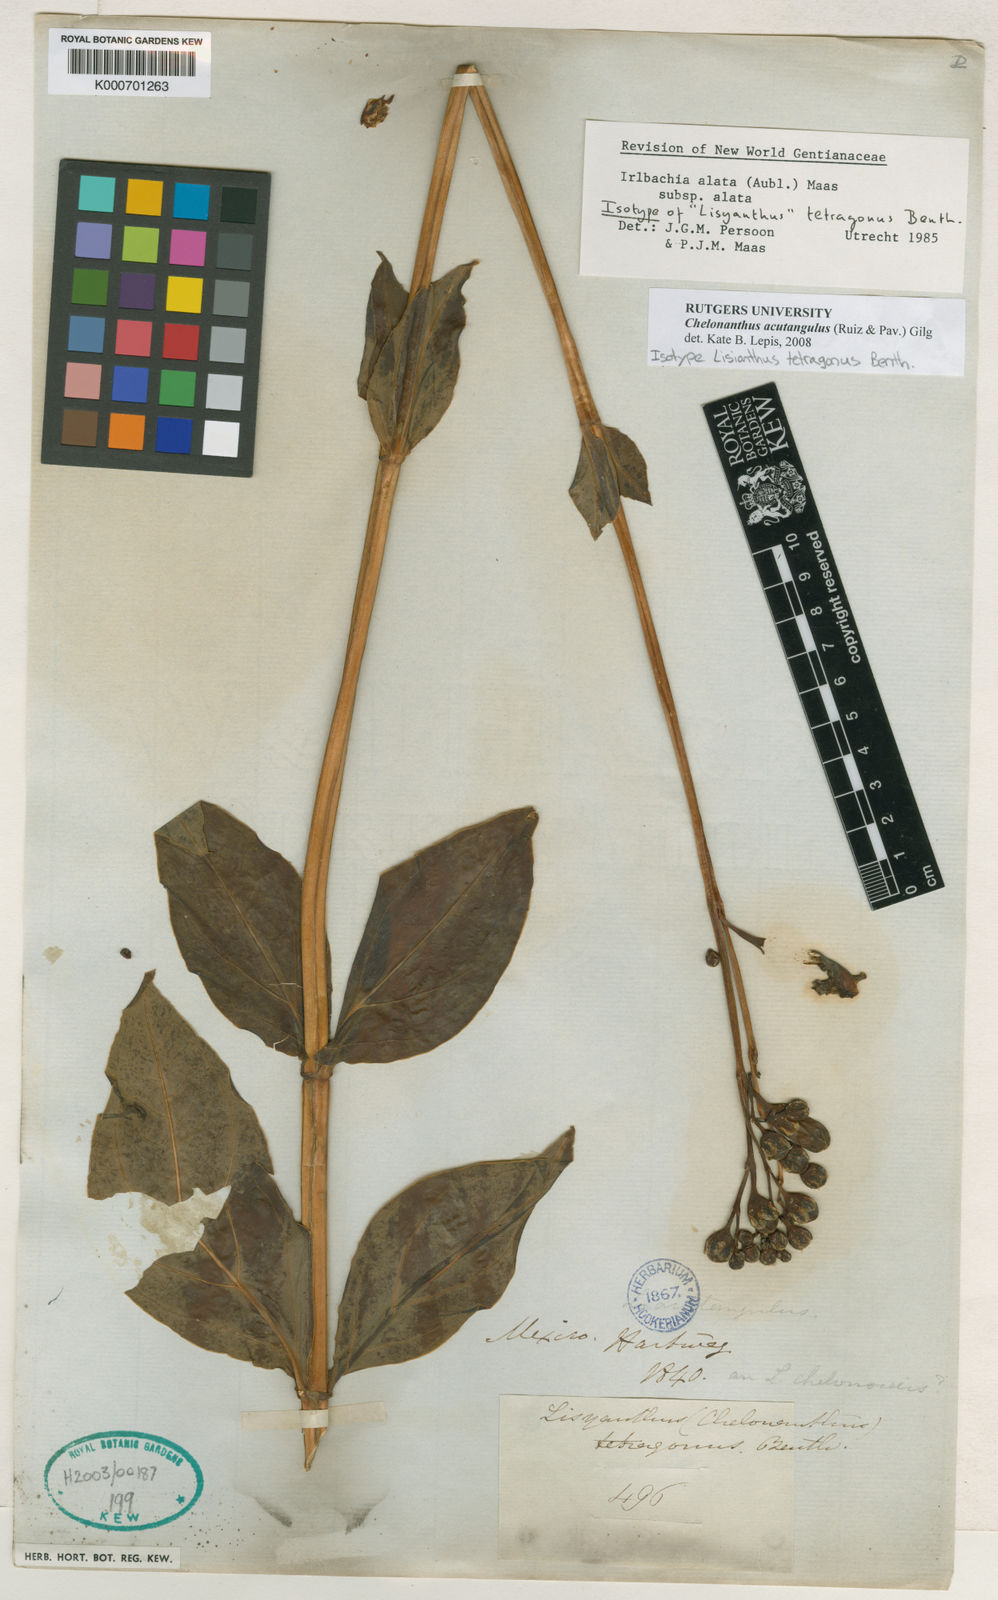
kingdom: Plantae
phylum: Tracheophyta
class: Magnoliopsida
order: Gentianales
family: Gentianaceae
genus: Chelonanthus
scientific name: Chelonanthus alatus
